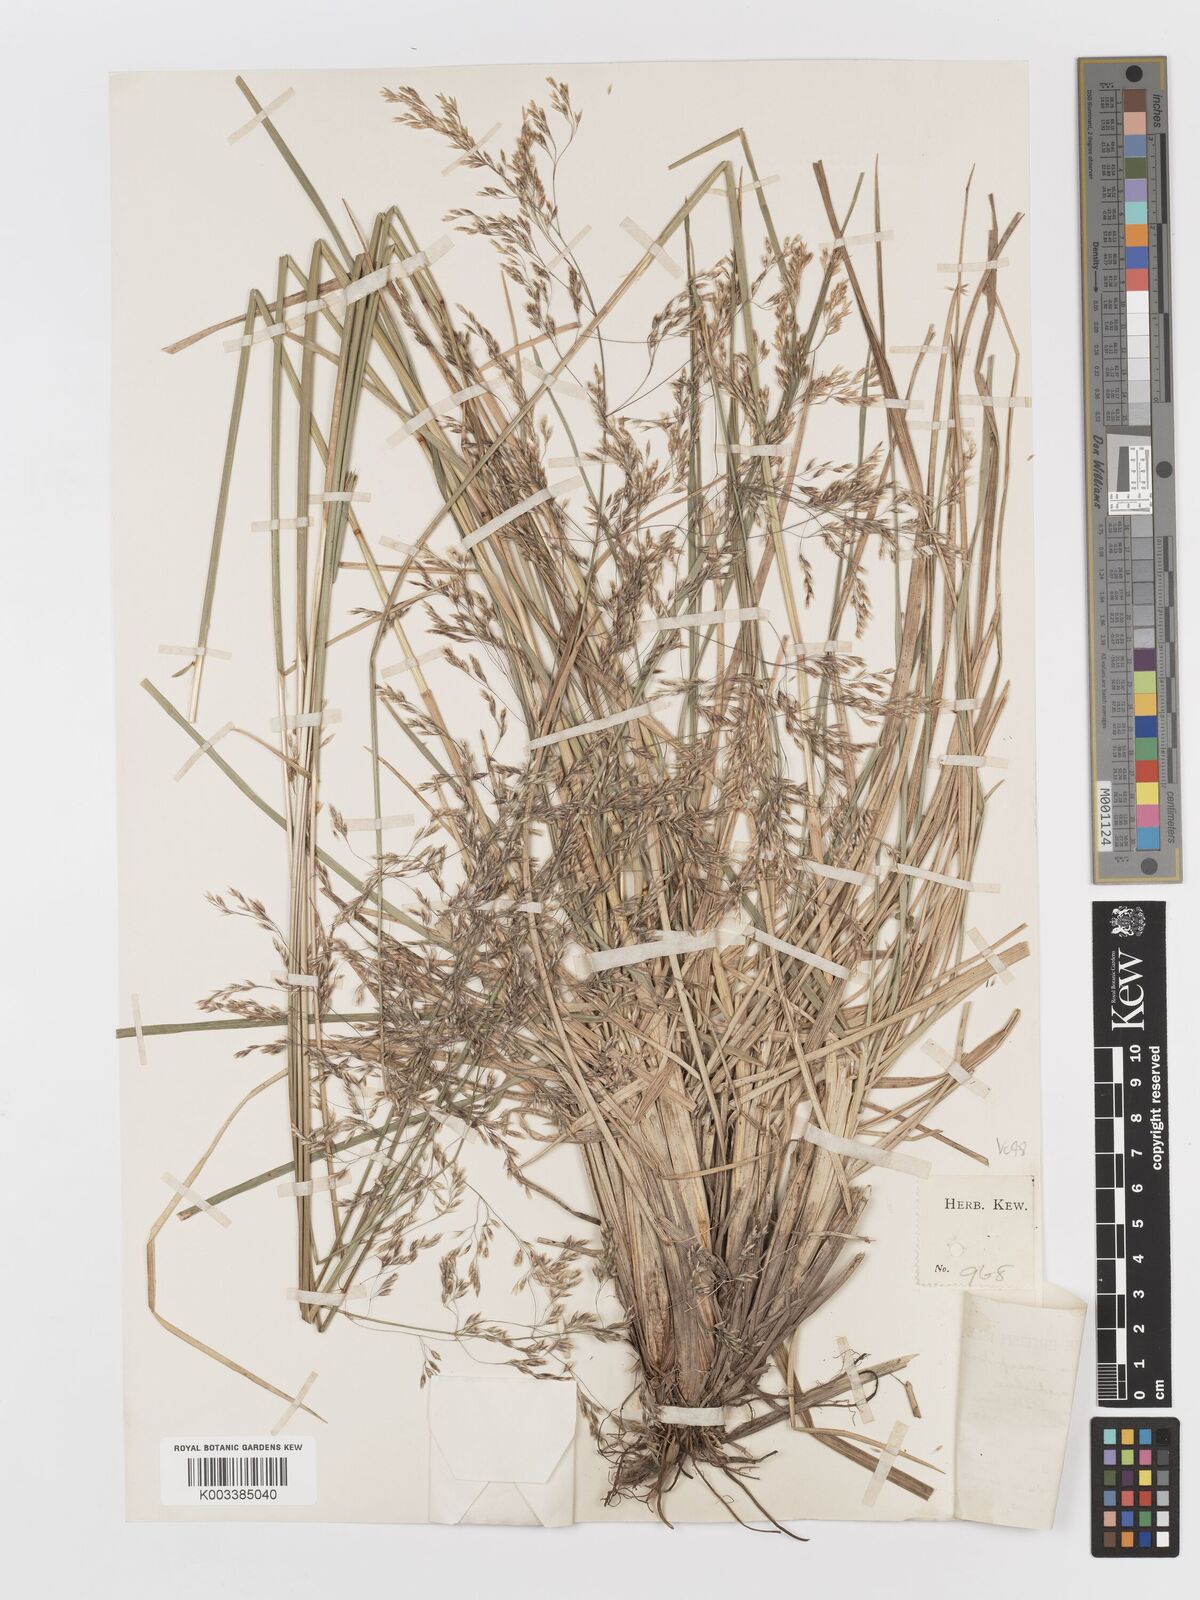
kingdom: Plantae
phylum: Tracheophyta
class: Liliopsida
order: Poales
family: Poaceae
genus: Deschampsia
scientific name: Deschampsia cespitosa
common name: Tufted hair-grass
